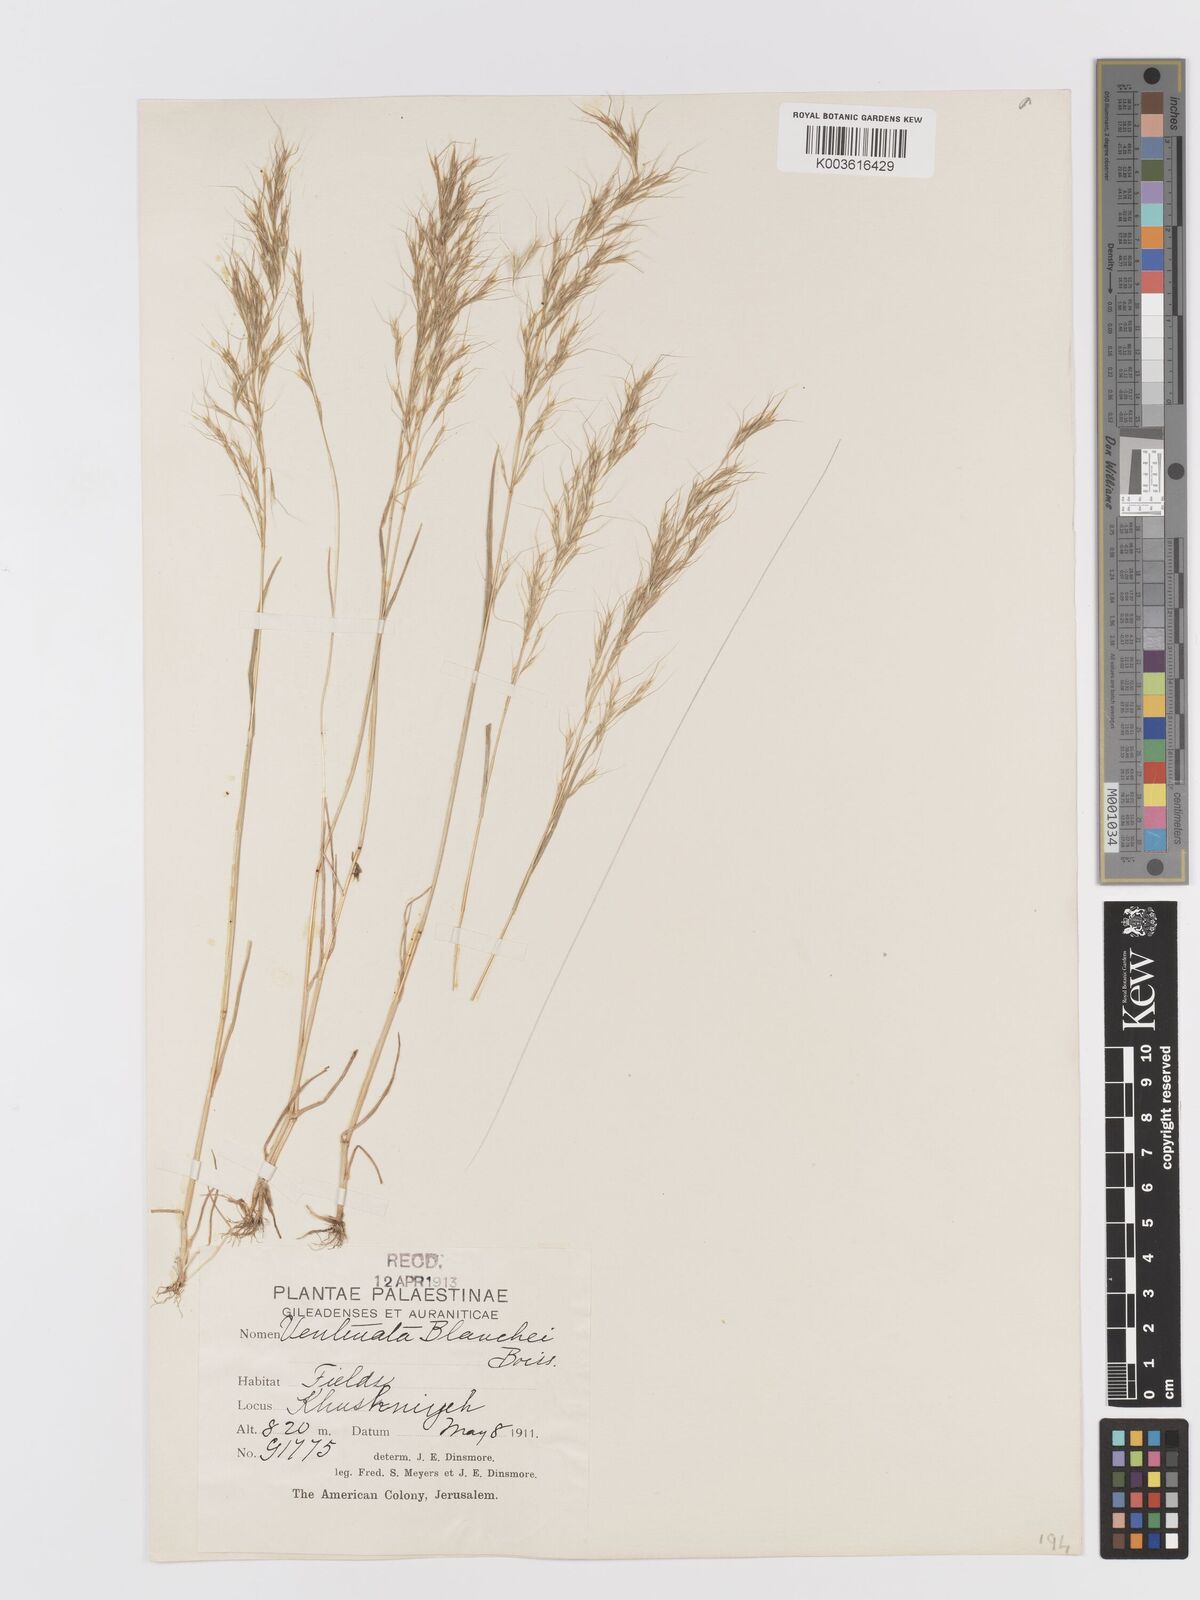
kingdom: Plantae
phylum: Tracheophyta
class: Liliopsida
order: Poales
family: Poaceae
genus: Ventenata
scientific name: Ventenata blanchei
